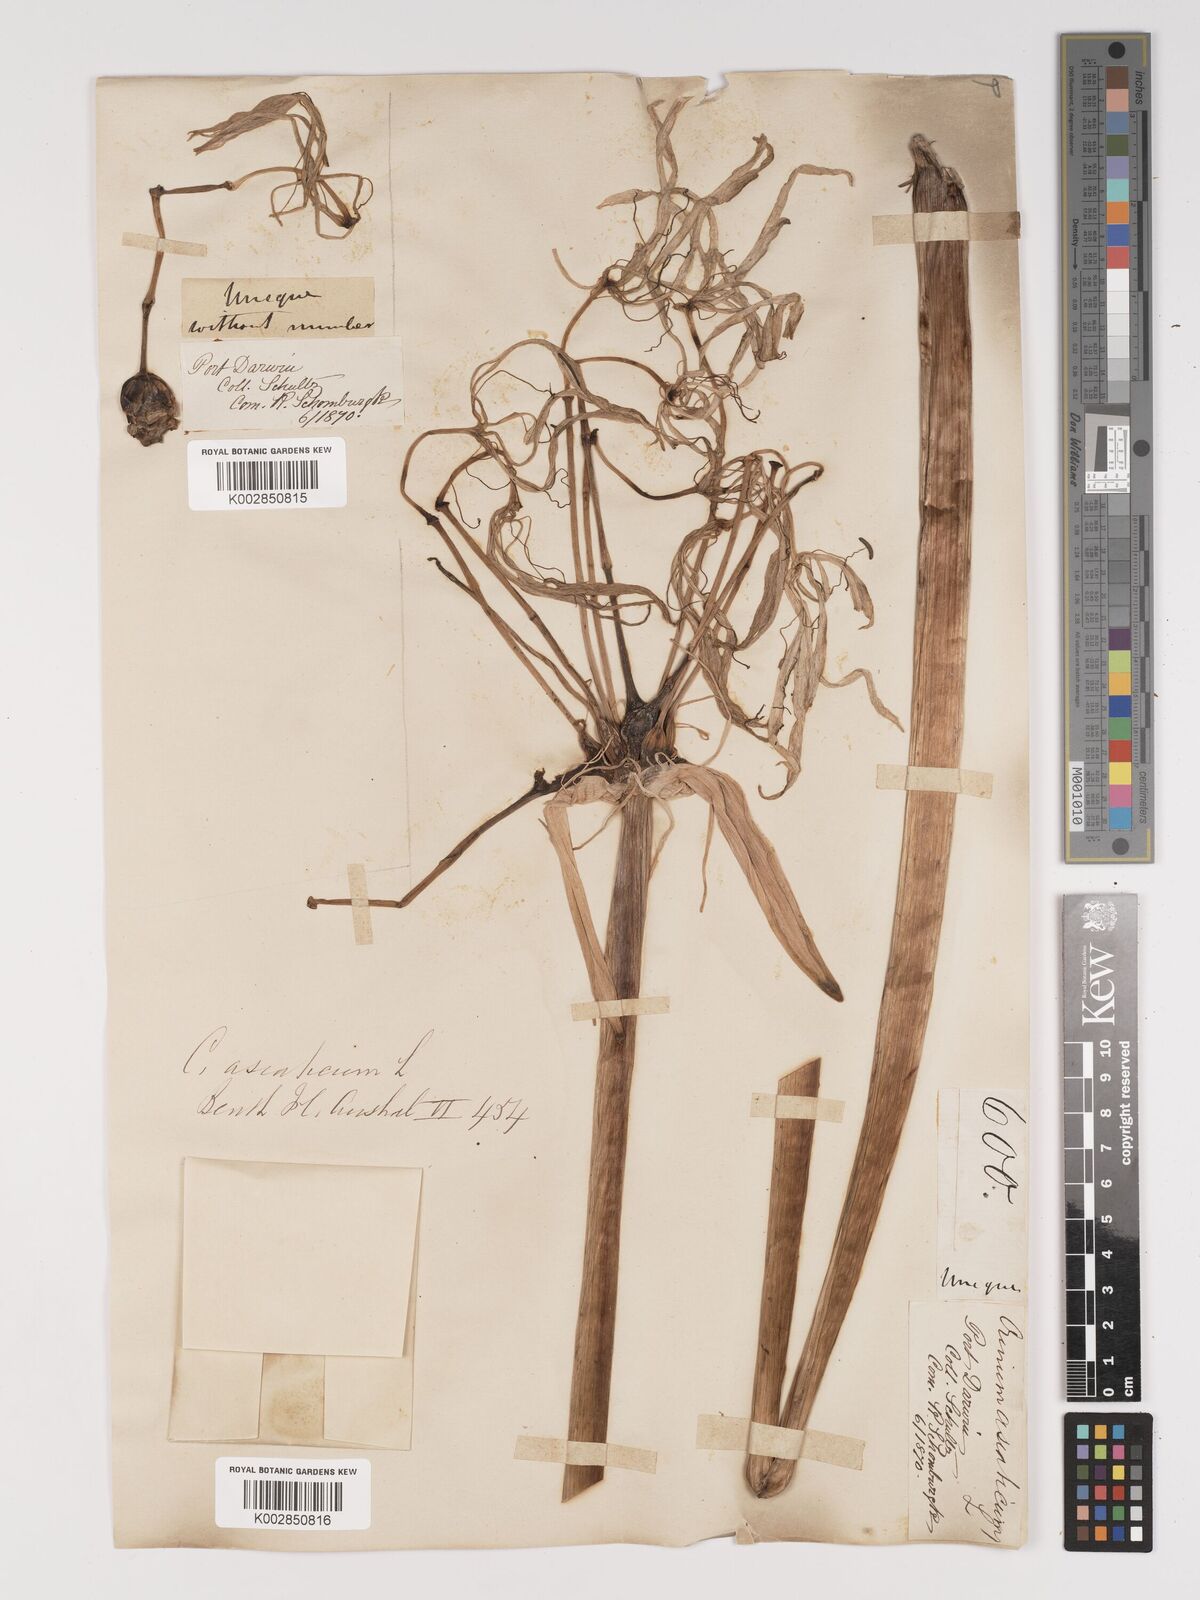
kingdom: Plantae
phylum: Tracheophyta
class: Liliopsida
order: Asparagales
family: Amaryllidaceae
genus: Crinum
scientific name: Crinum arenarium
